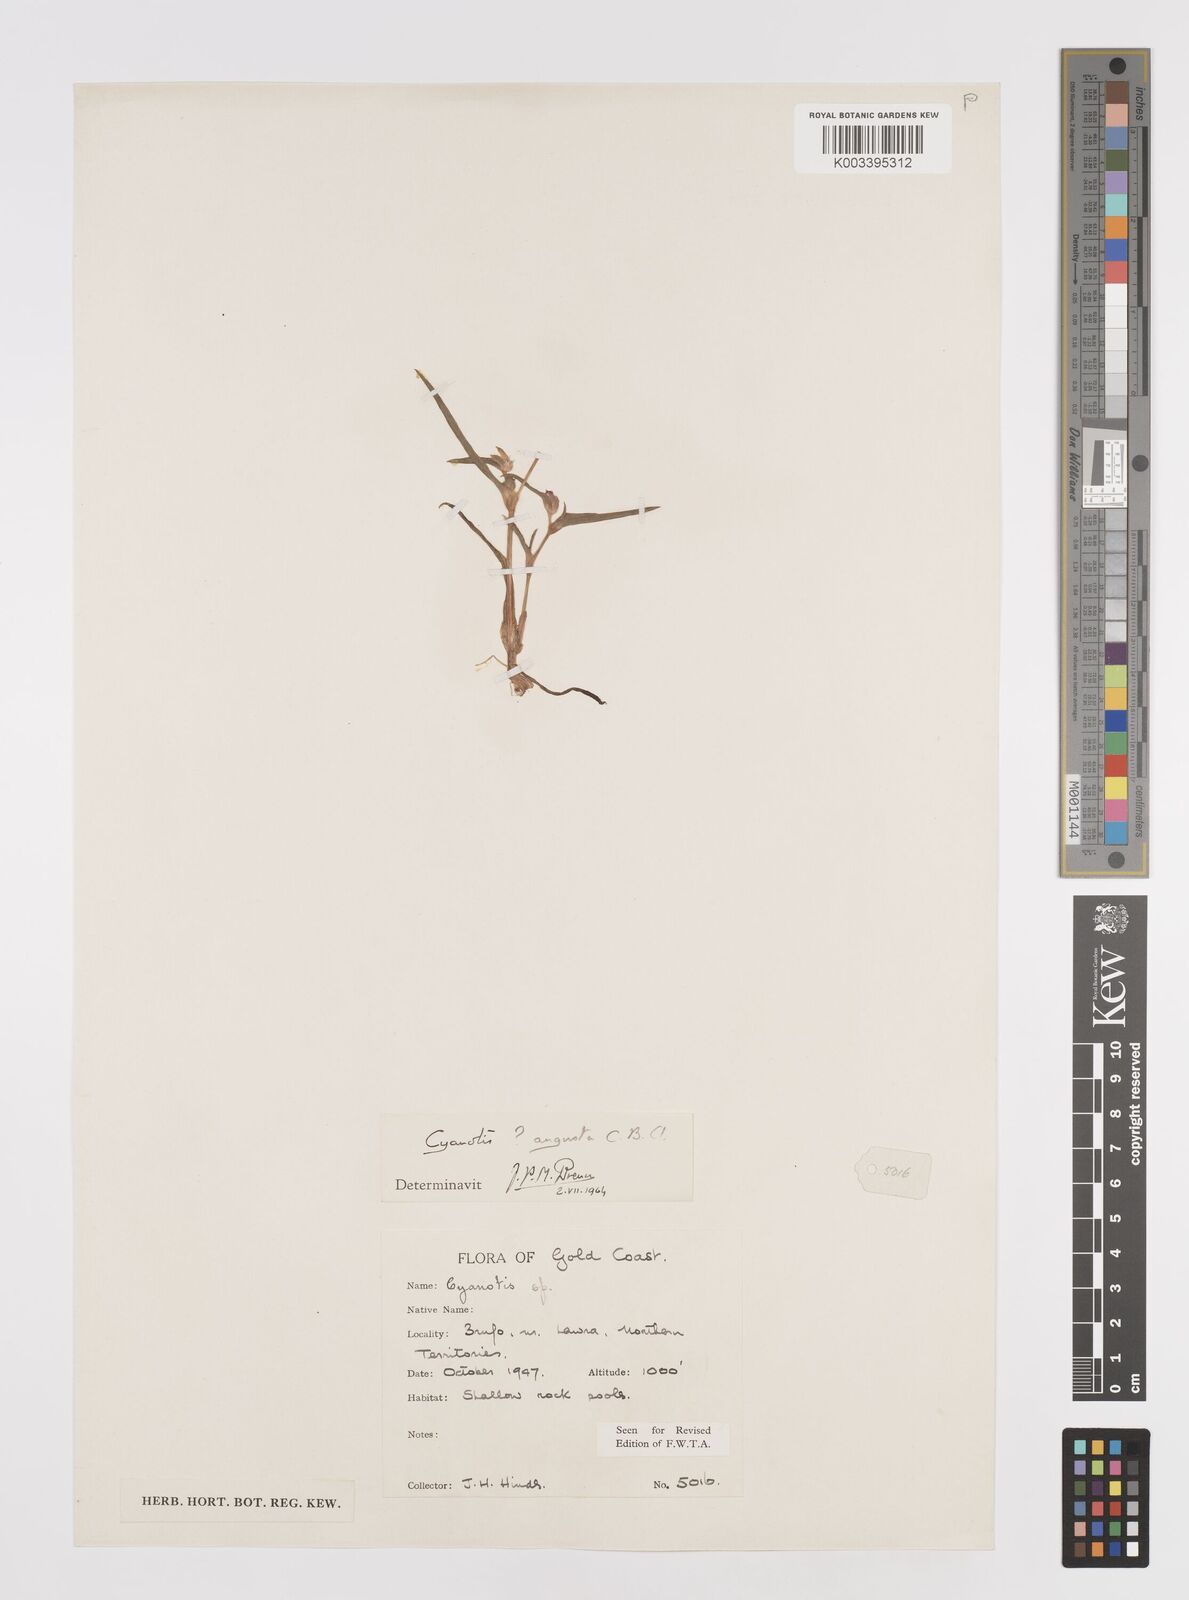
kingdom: Plantae
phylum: Tracheophyta
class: Liliopsida
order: Commelinales
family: Commelinaceae
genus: Cyanotis
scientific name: Cyanotis angusta
